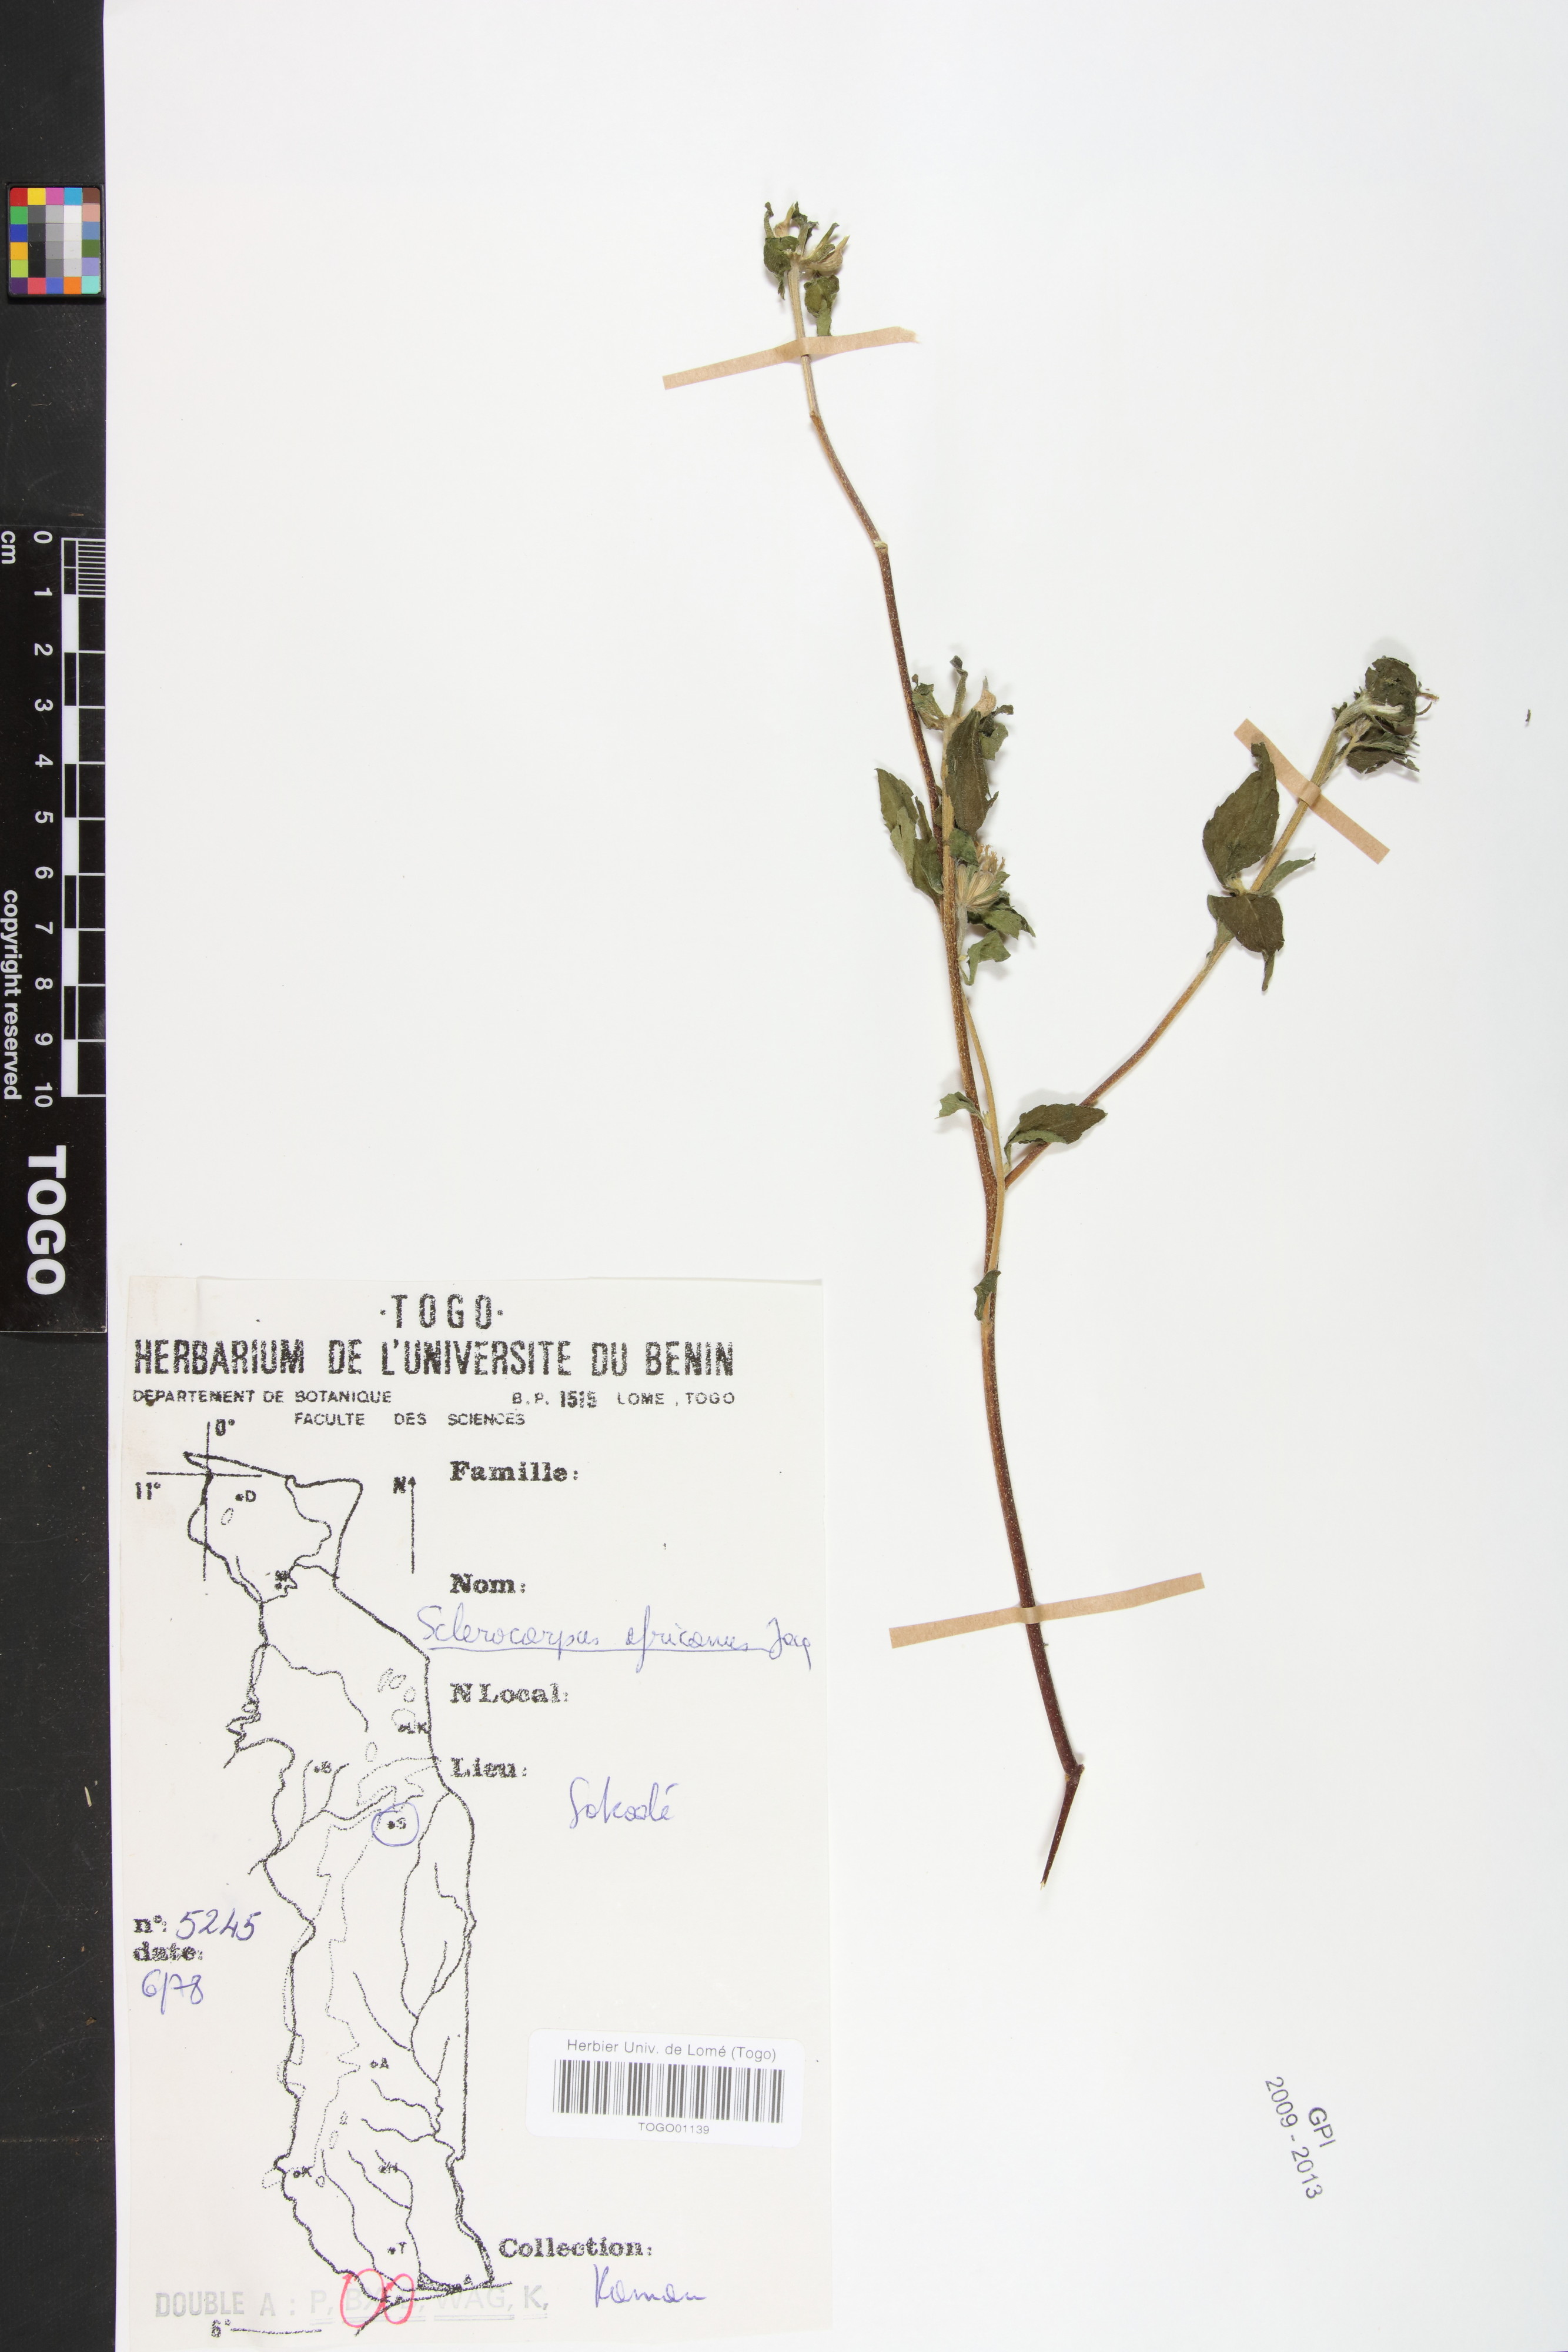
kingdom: Plantae
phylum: Tracheophyta
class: Magnoliopsida
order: Asterales
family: Asteraceae
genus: Sclerocarpus
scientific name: Sclerocarpus africanus
